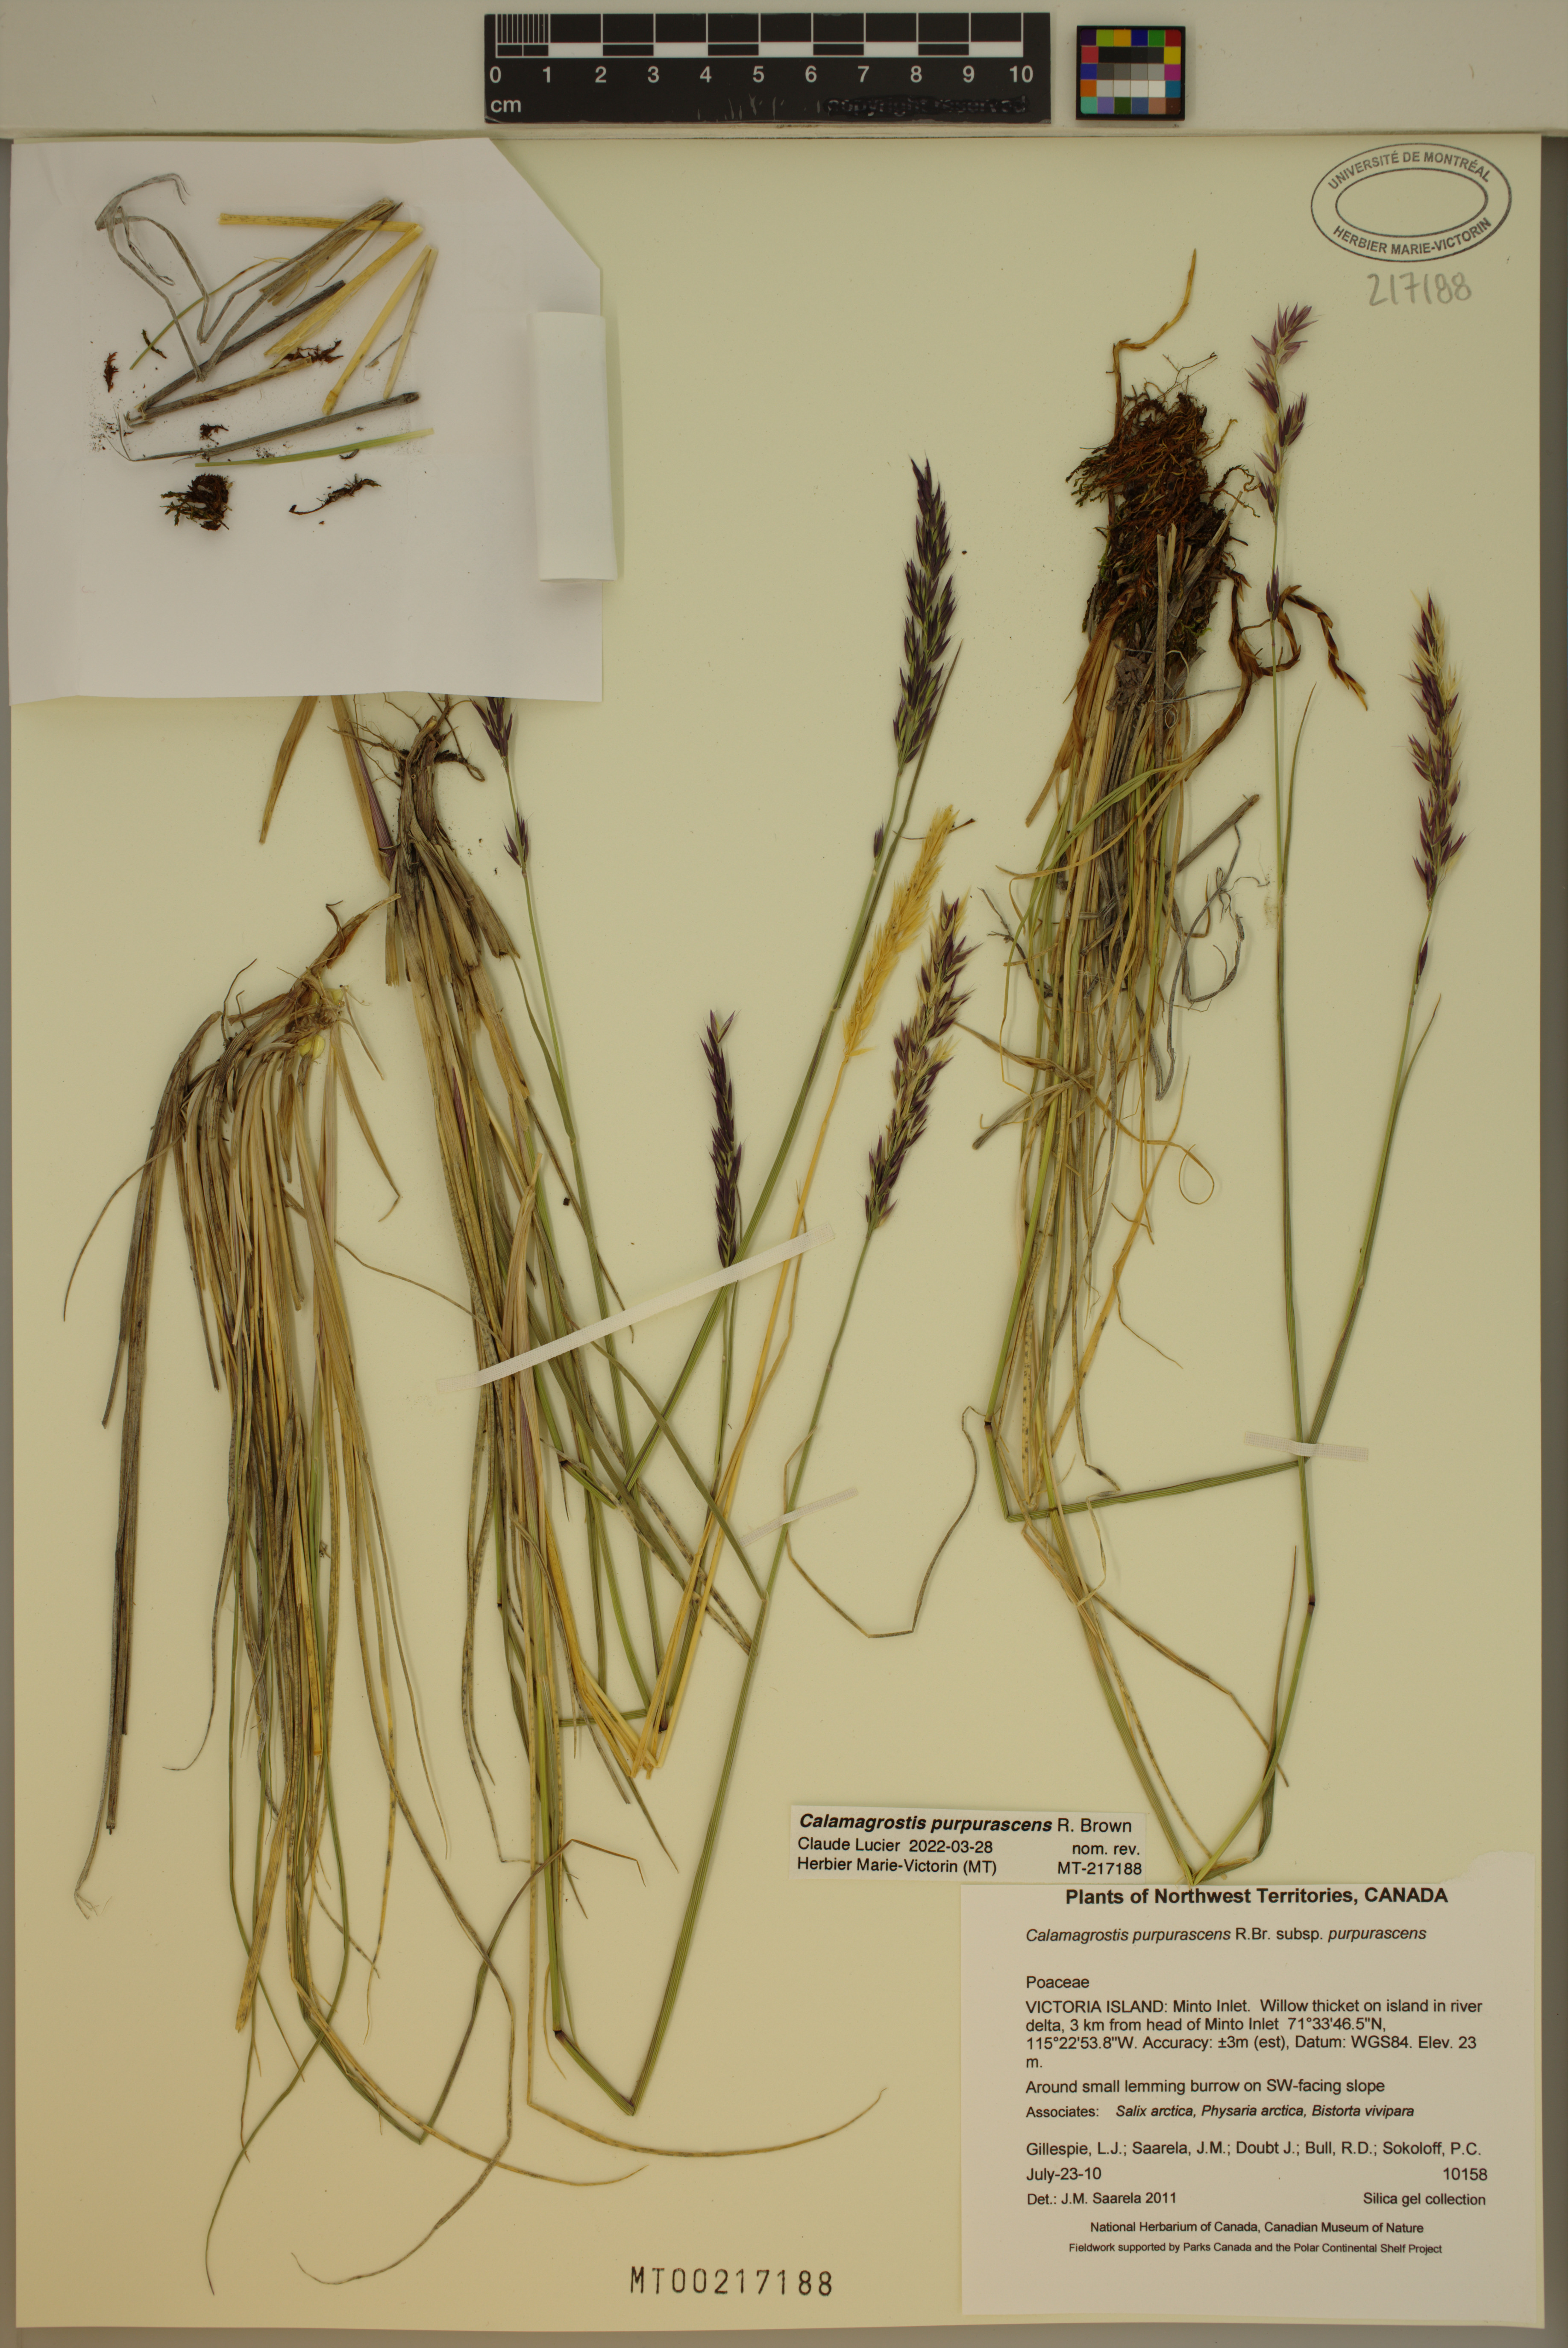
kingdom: Plantae
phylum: Tracheophyta
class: Liliopsida
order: Poales
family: Poaceae
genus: Calamagrostis
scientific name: Calamagrostis purpurascens
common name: Purple reedgrass
